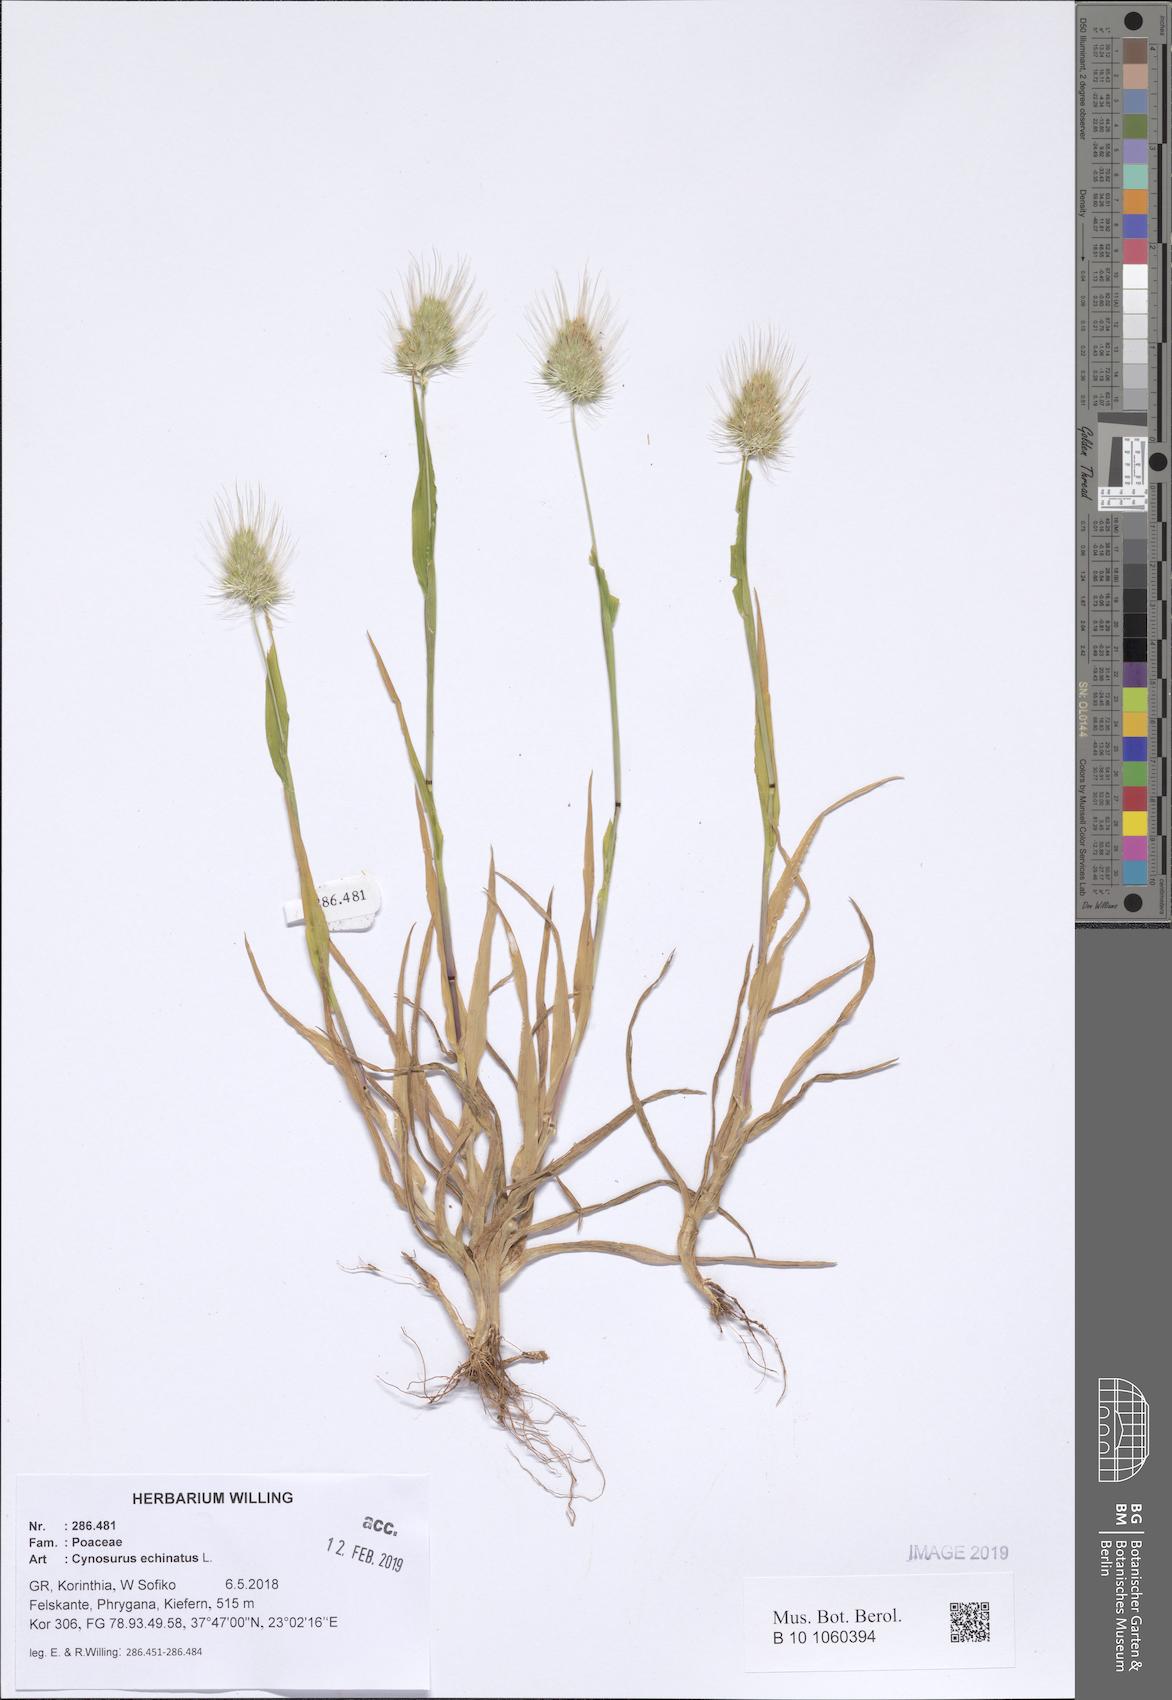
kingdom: Plantae
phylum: Tracheophyta
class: Liliopsida
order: Poales
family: Poaceae
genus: Cynosurus
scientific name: Cynosurus echinatus
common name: Rough dog's-tail
